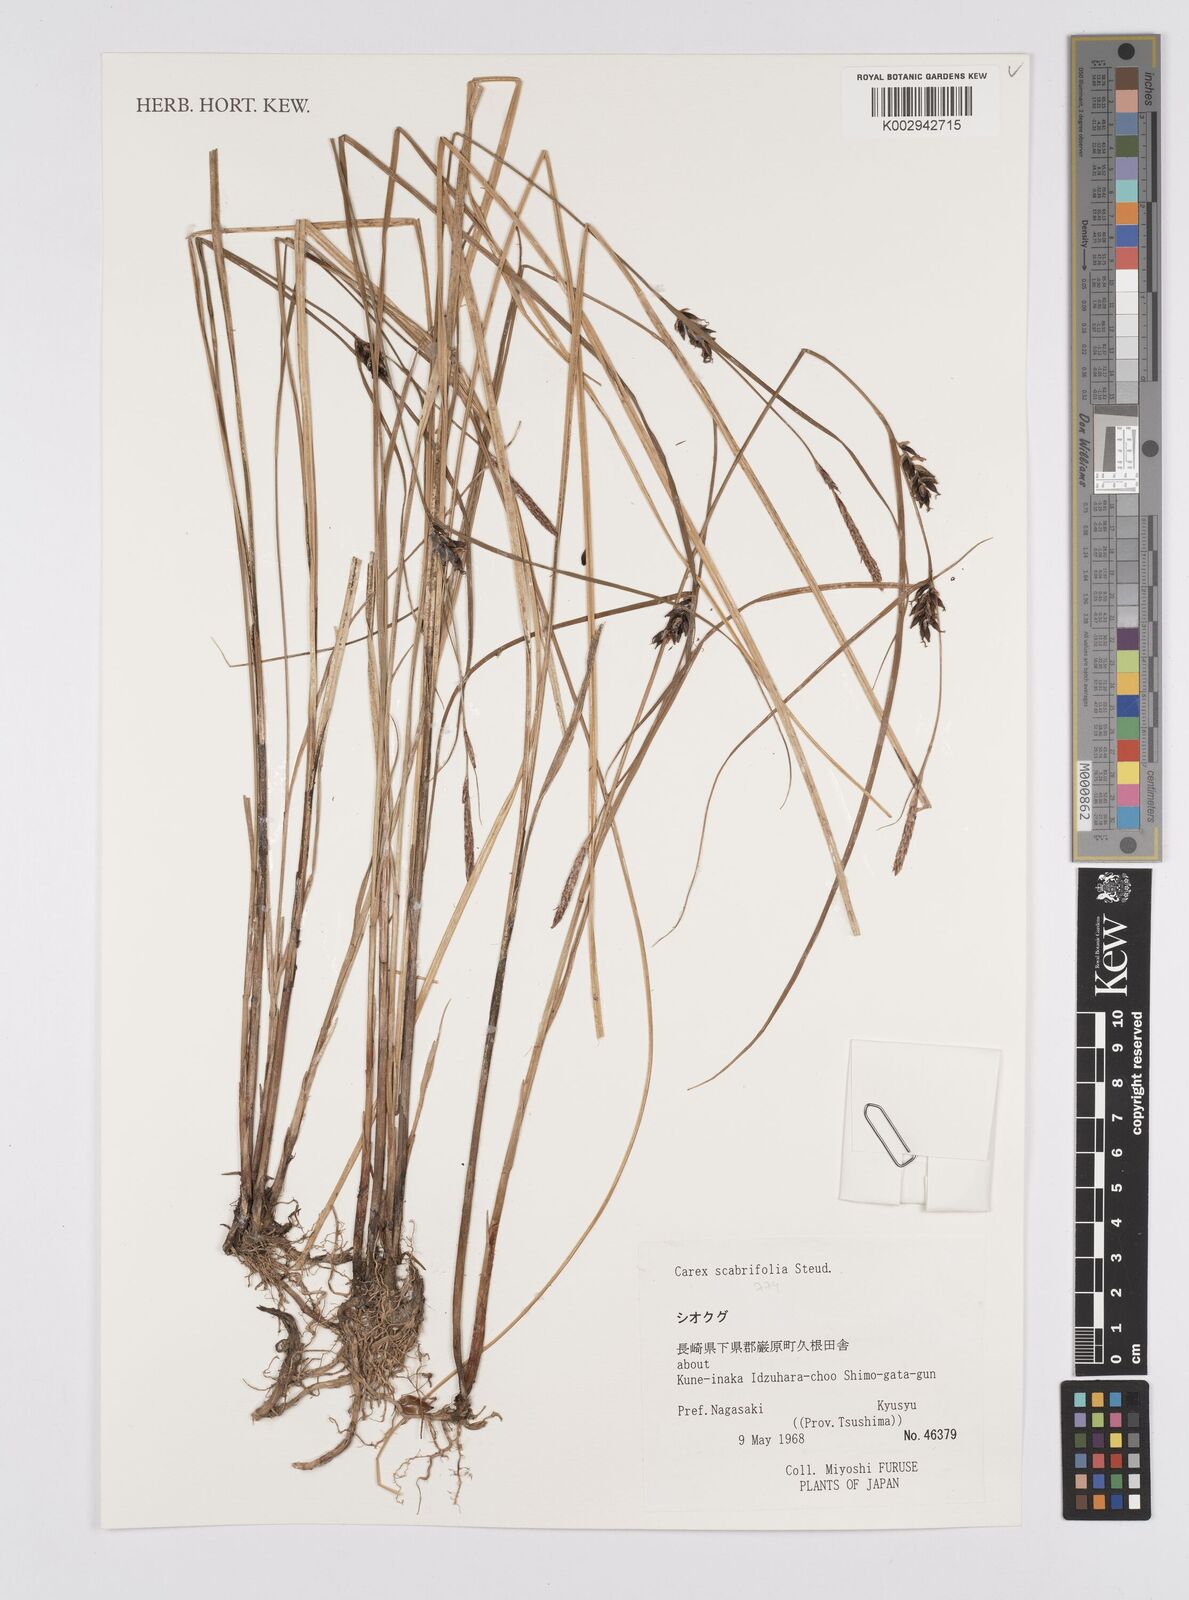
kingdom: Plantae
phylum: Tracheophyta
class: Liliopsida
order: Poales
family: Cyperaceae
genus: Carex
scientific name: Carex scabrifolia
